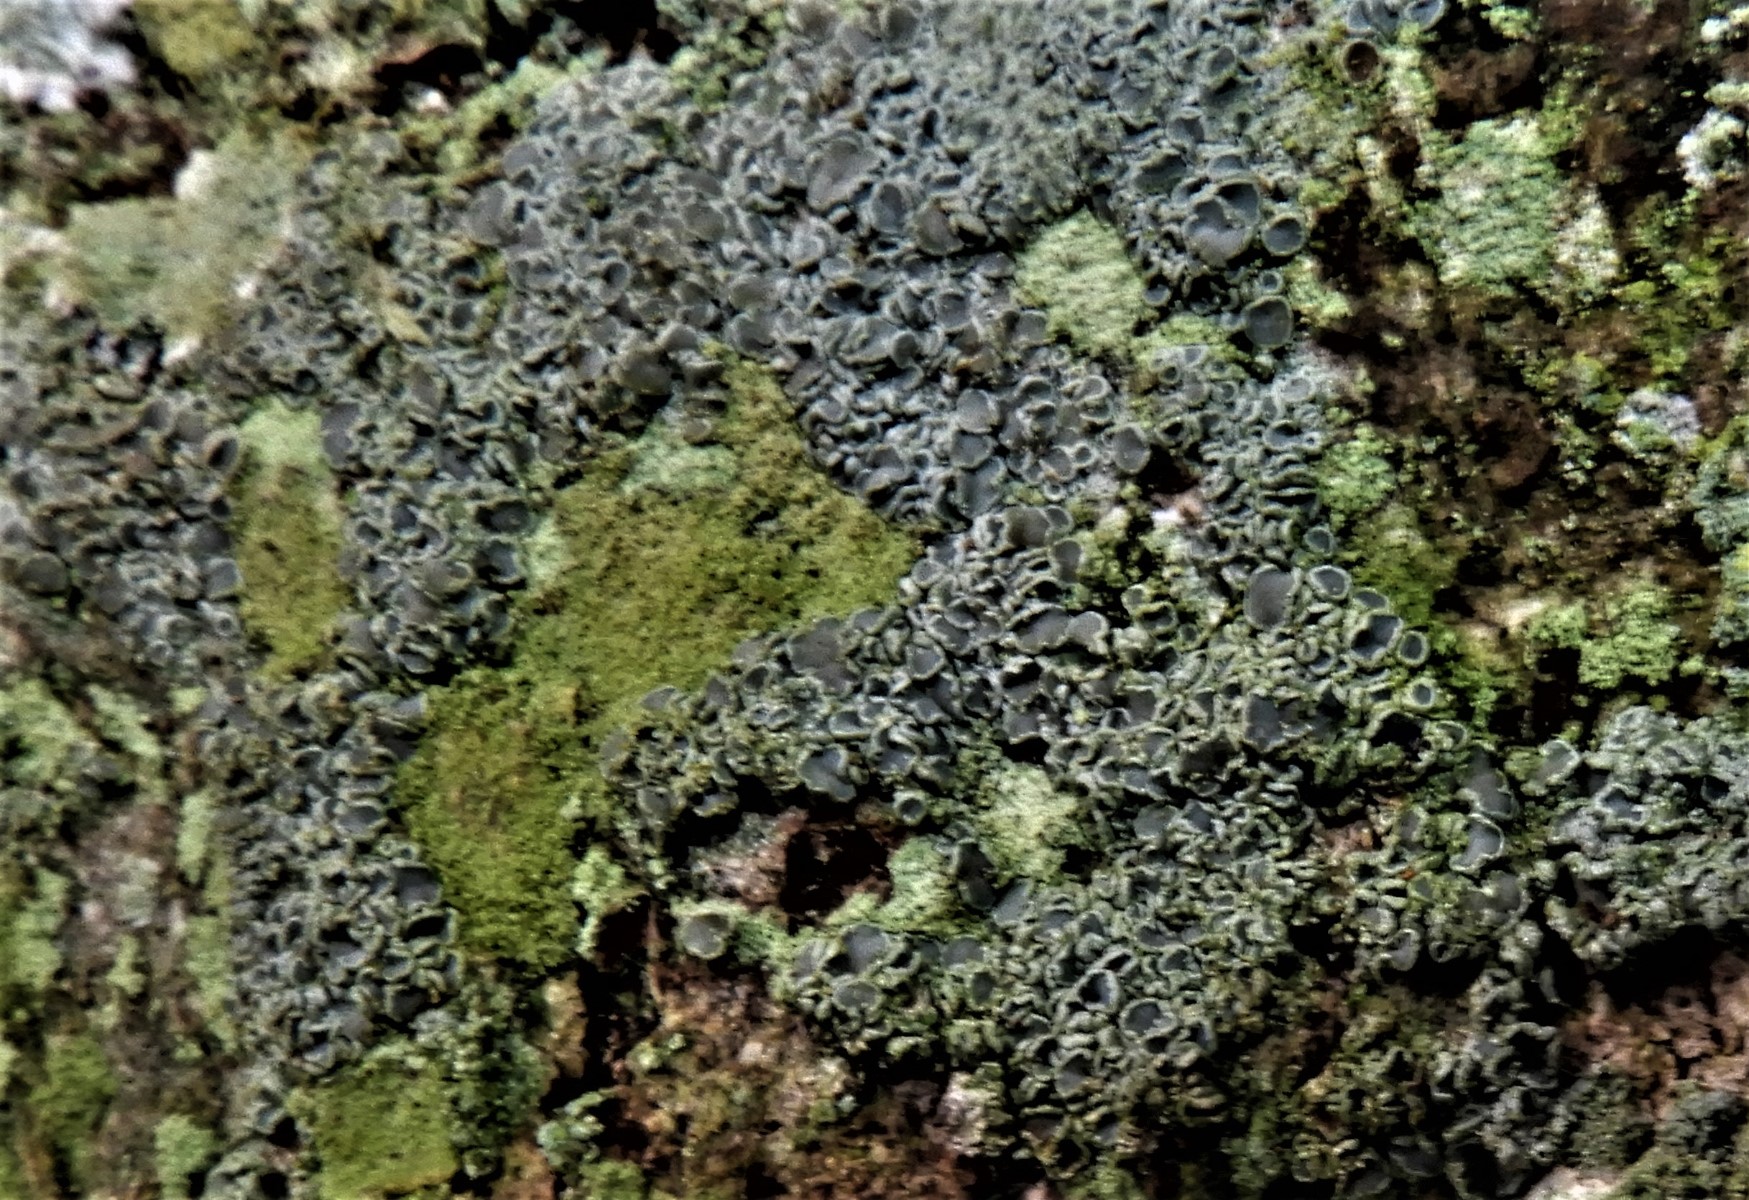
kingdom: Fungi
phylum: Ascomycota
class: Lecanoromycetes
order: Lecanorales
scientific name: Lecanorales
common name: skivelavordenen
